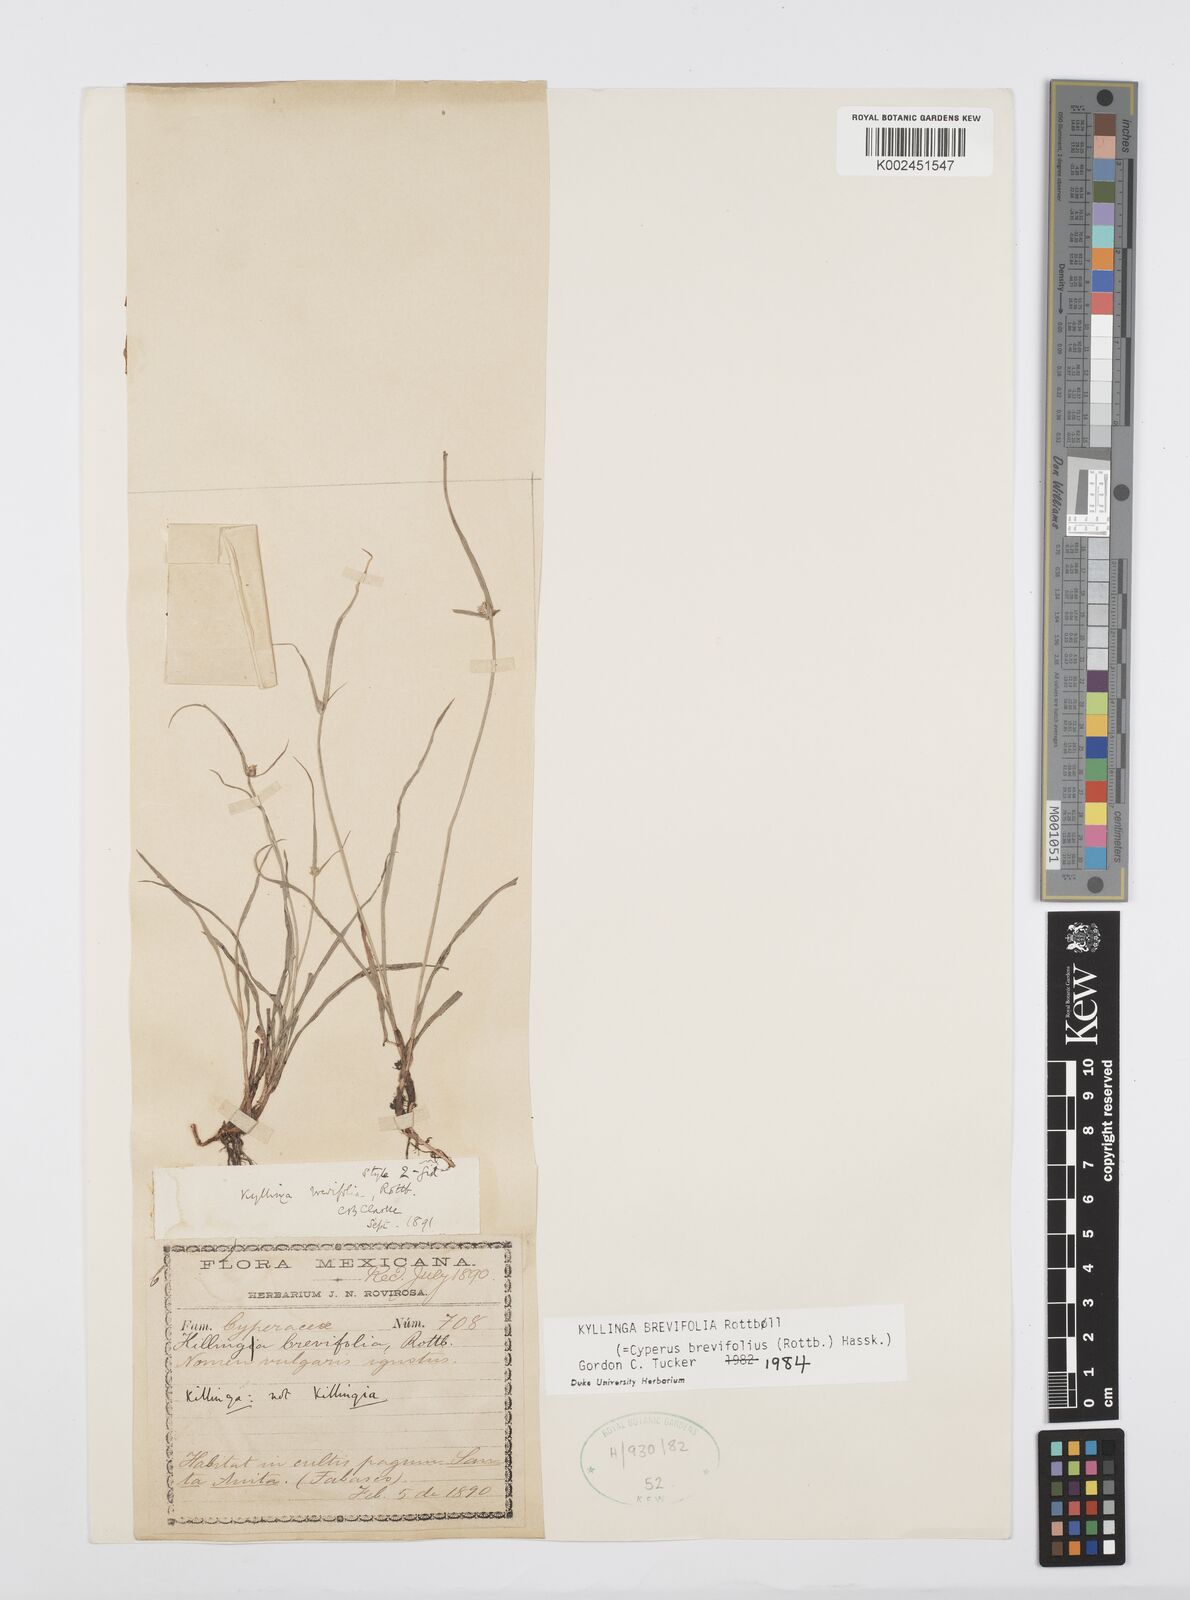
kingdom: Plantae
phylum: Tracheophyta
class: Liliopsida
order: Poales
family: Cyperaceae
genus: Cyperus
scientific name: Cyperus brevifolius
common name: Globe kyllinga
